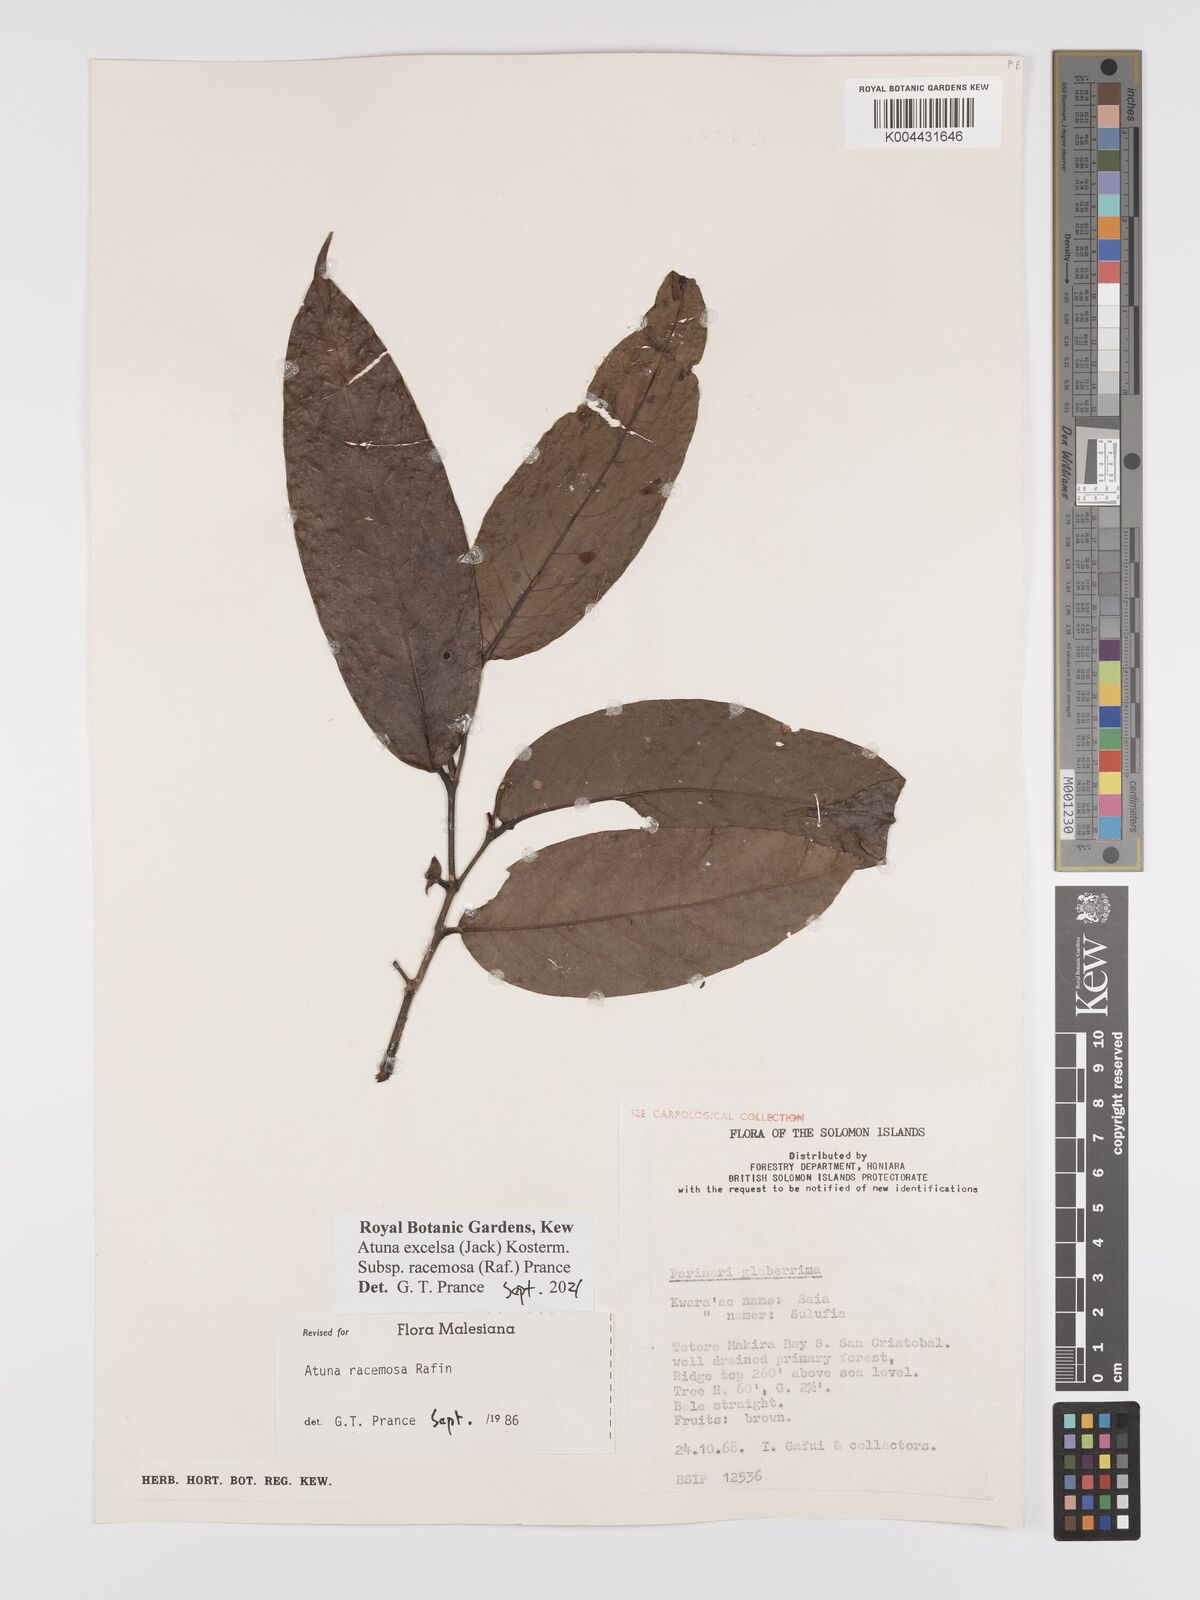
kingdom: Plantae
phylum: Tracheophyta
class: Magnoliopsida
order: Malpighiales
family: Chrysobalanaceae
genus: Atuna
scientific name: Atuna
